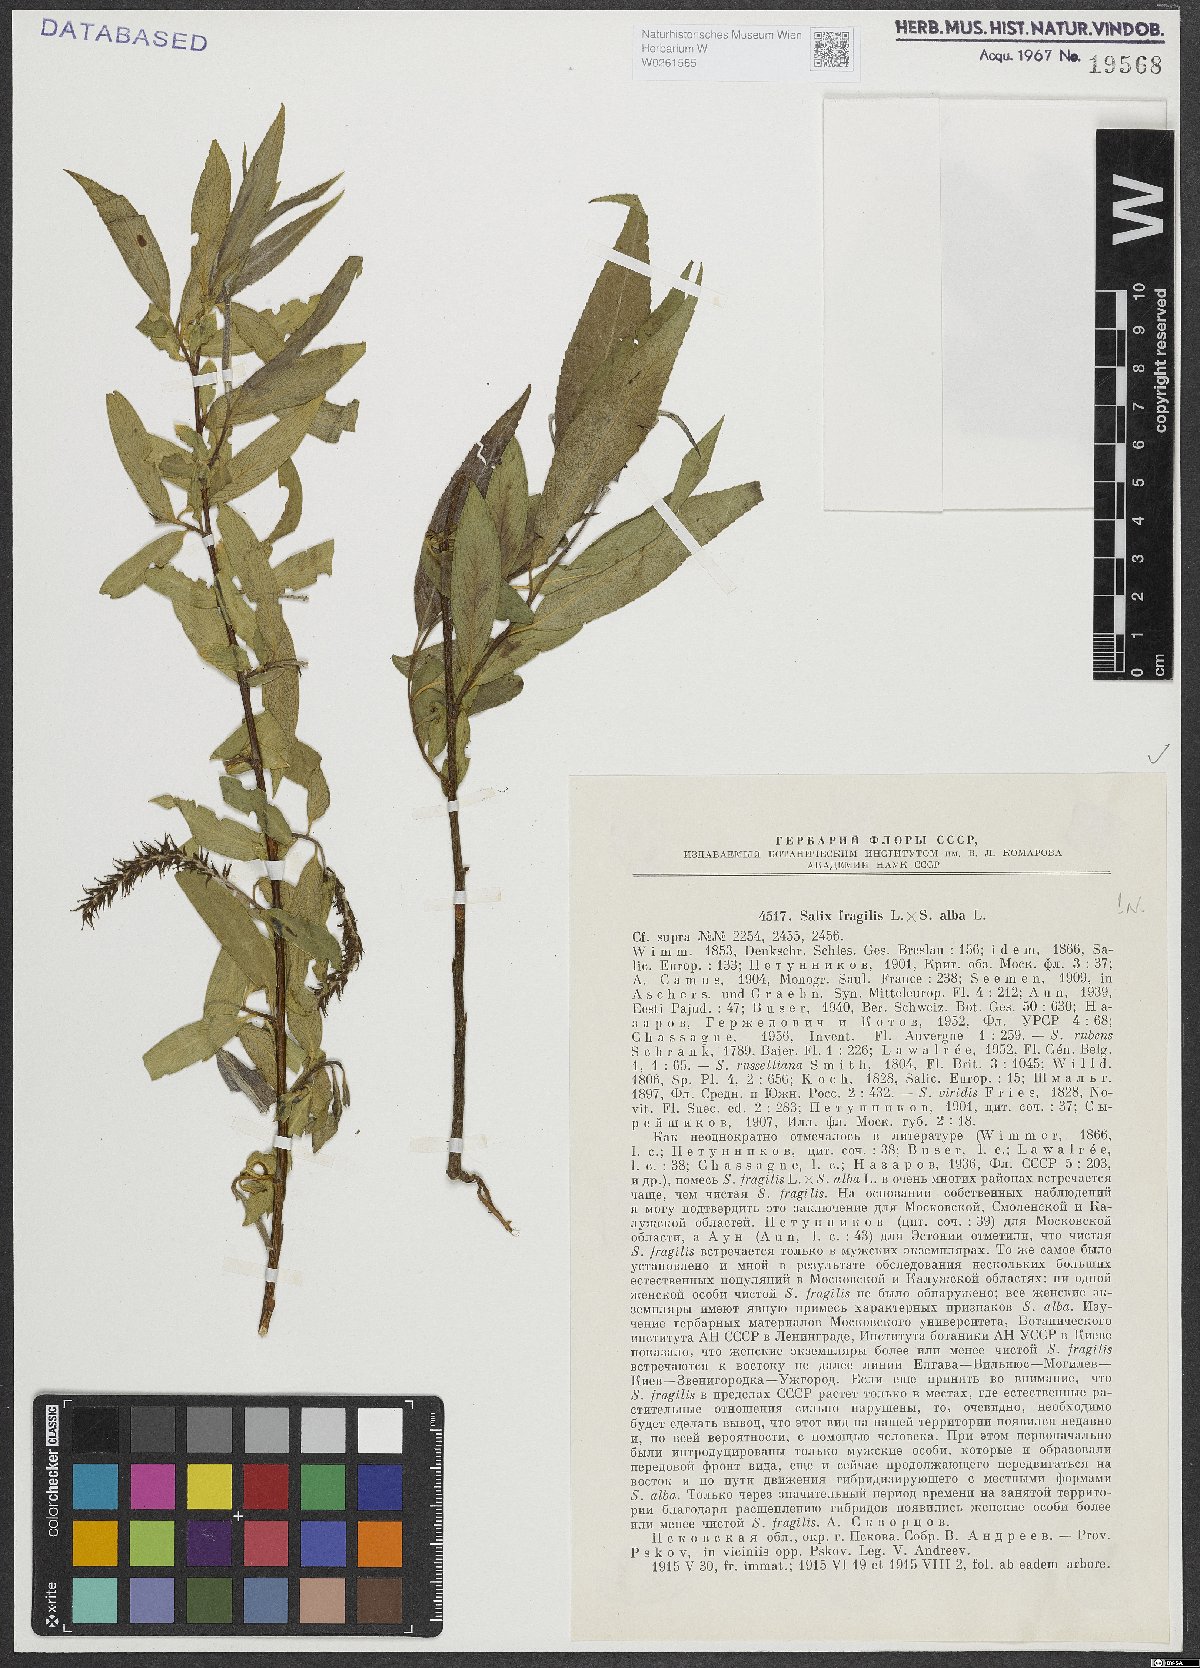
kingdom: Plantae
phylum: Tracheophyta
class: Magnoliopsida
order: Malpighiales
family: Salicaceae
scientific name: Salicaceae
